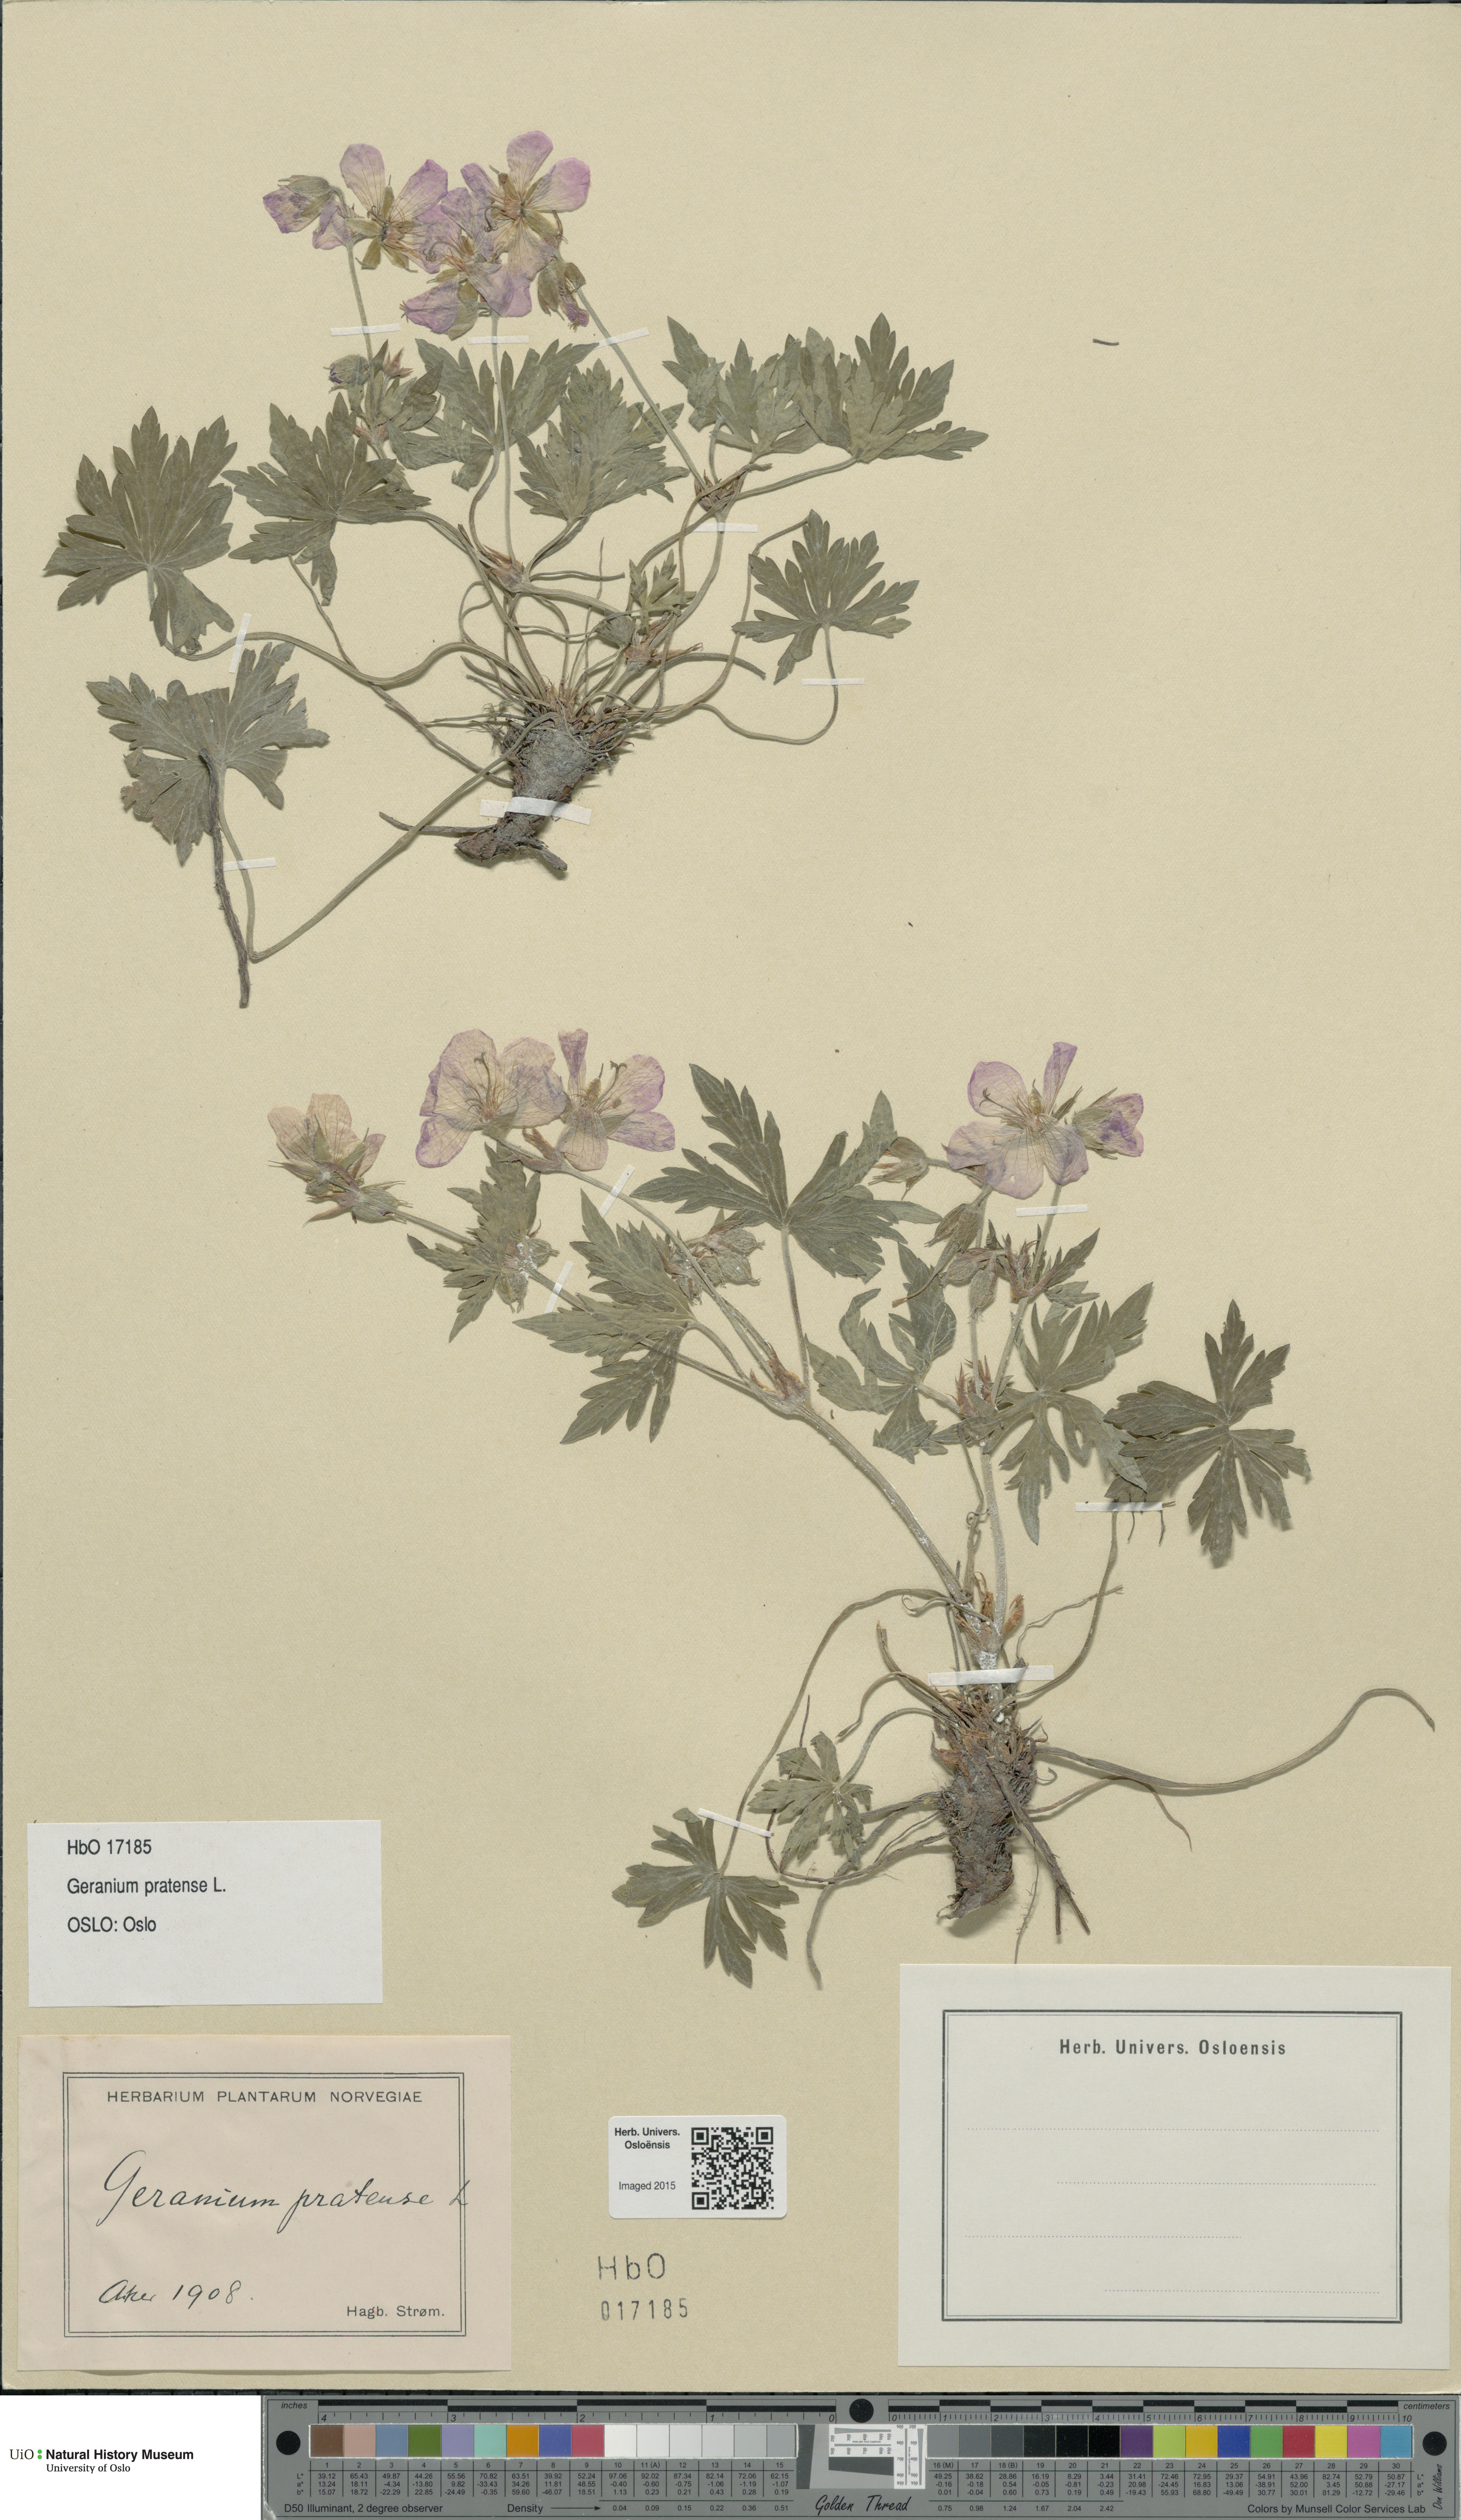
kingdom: Plantae
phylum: Tracheophyta
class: Magnoliopsida
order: Geraniales
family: Geraniaceae
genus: Geranium
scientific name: Geranium pratense
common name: Meadow crane's-bill
